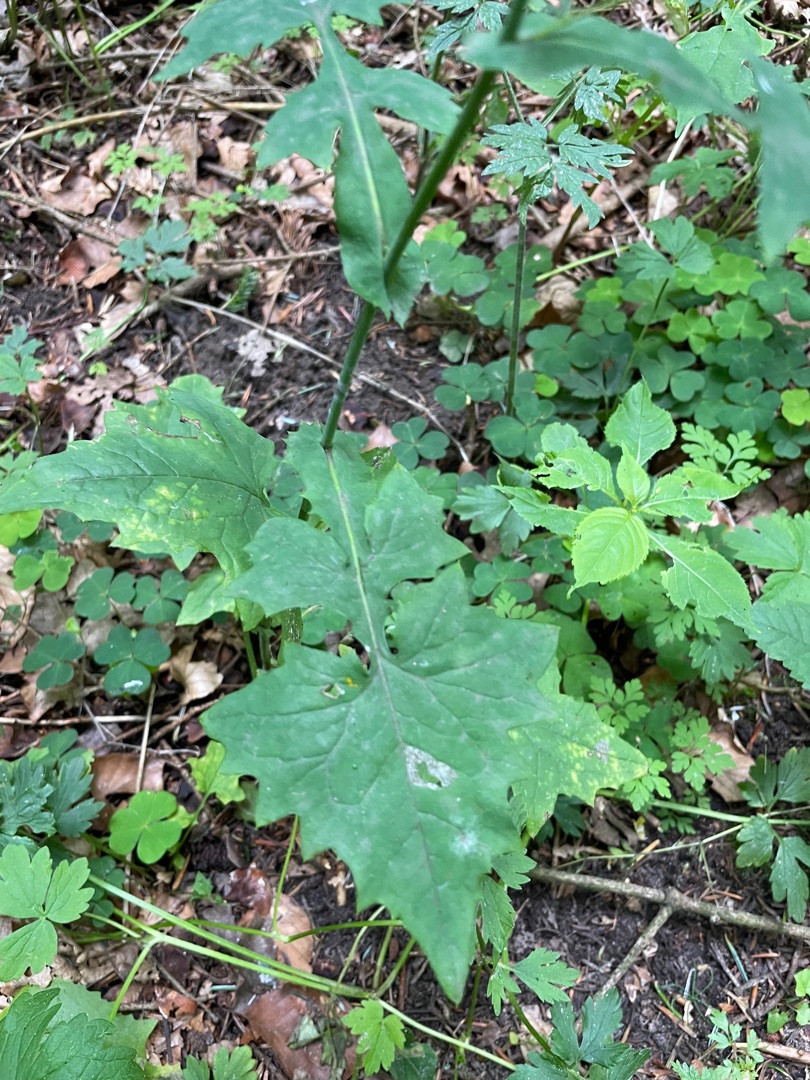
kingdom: Plantae
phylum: Tracheophyta
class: Magnoliopsida
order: Asterales
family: Asteraceae
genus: Mycelis
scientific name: Mycelis muralis
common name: Skov-salat
